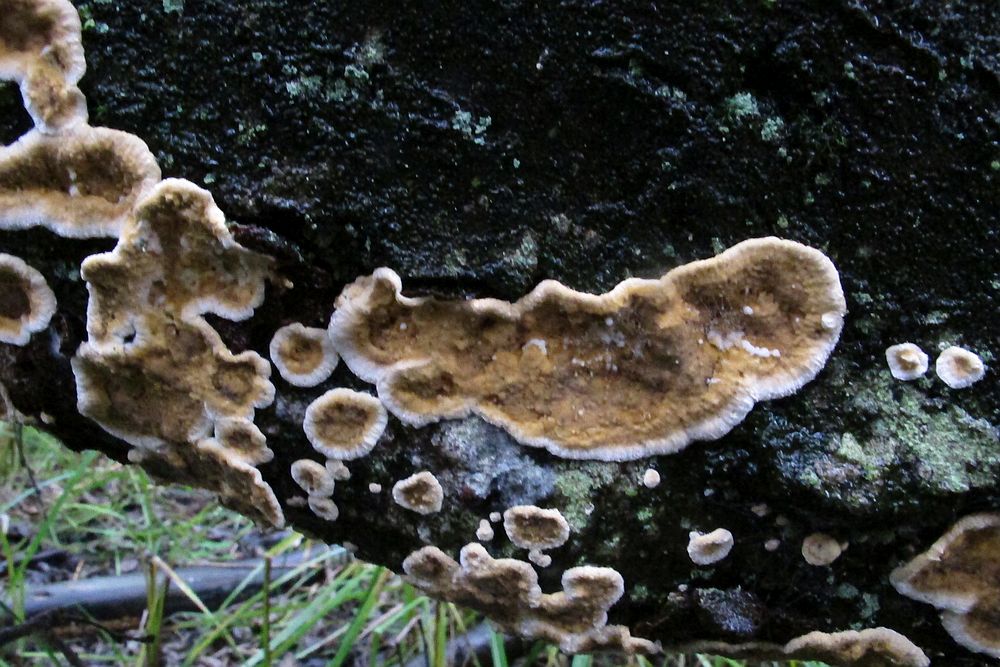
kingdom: Fungi
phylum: Basidiomycota
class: Agaricomycetes
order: Russulales
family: Stereaceae
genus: Stereum
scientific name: Stereum rugosum
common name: rynket lædersvamp
